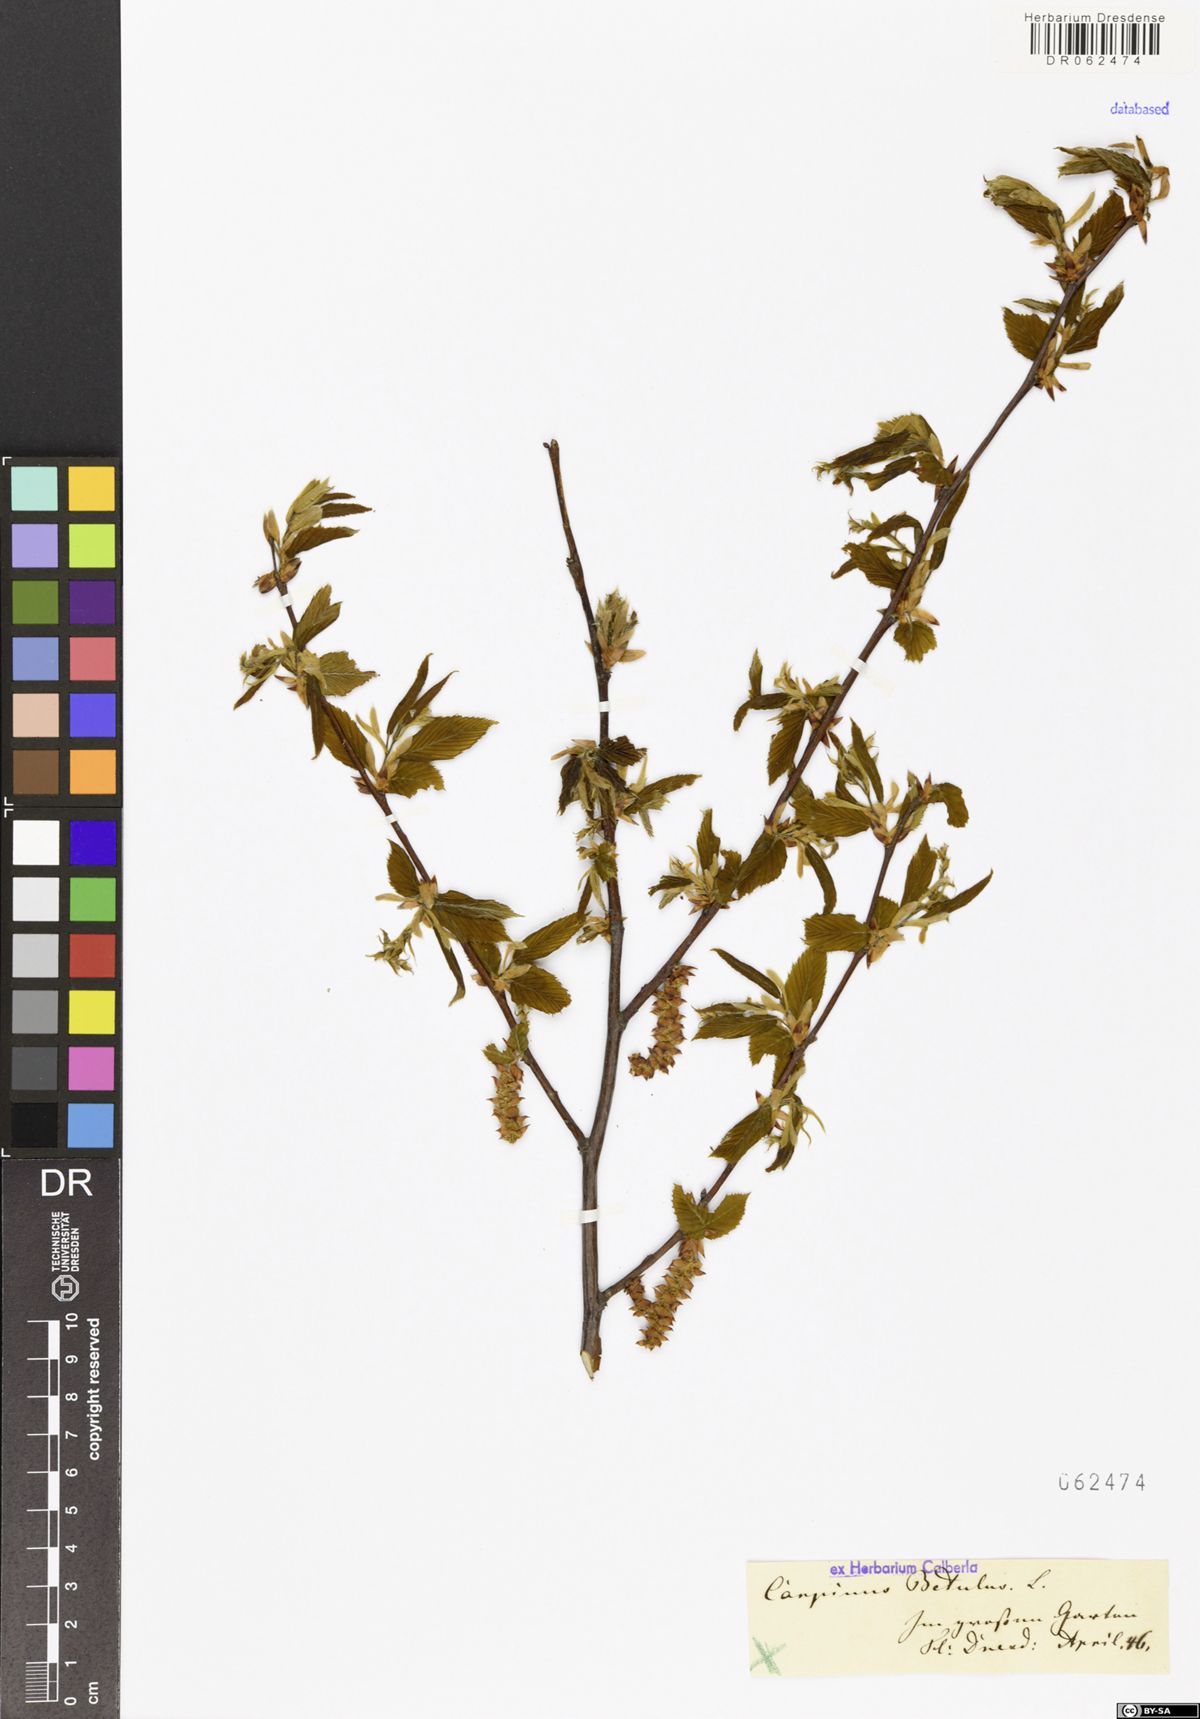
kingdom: Plantae
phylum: Tracheophyta
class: Magnoliopsida
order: Fagales
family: Betulaceae
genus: Carpinus
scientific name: Carpinus betulus
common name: Hornbeam
